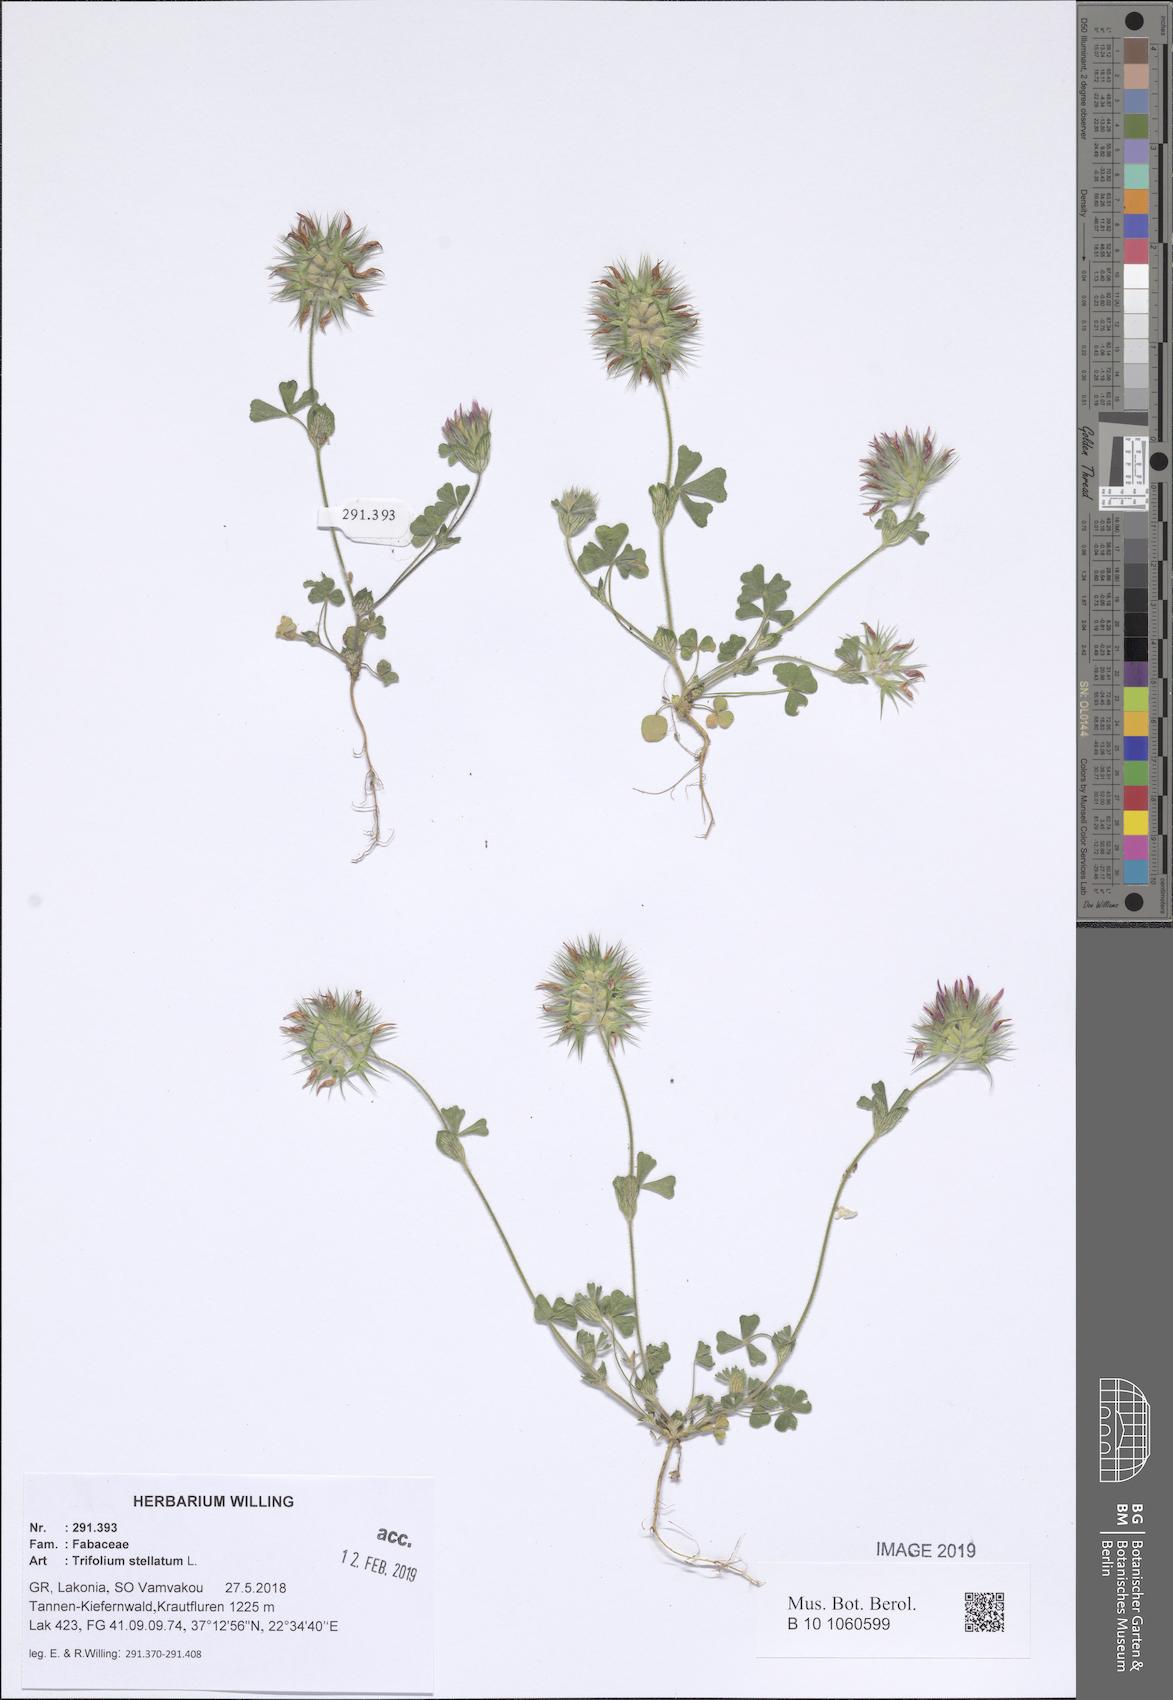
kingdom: Plantae
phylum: Tracheophyta
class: Magnoliopsida
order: Fabales
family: Fabaceae
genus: Trifolium
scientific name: Trifolium stellatum
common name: Starry clover
